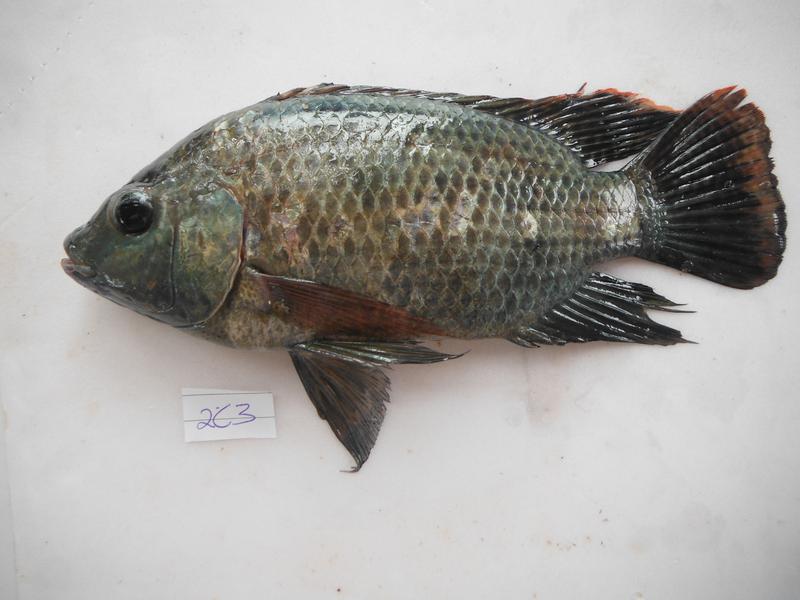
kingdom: Animalia
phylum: Chordata
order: Perciformes
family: Cichlidae
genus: Oreochromis
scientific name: Oreochromis
